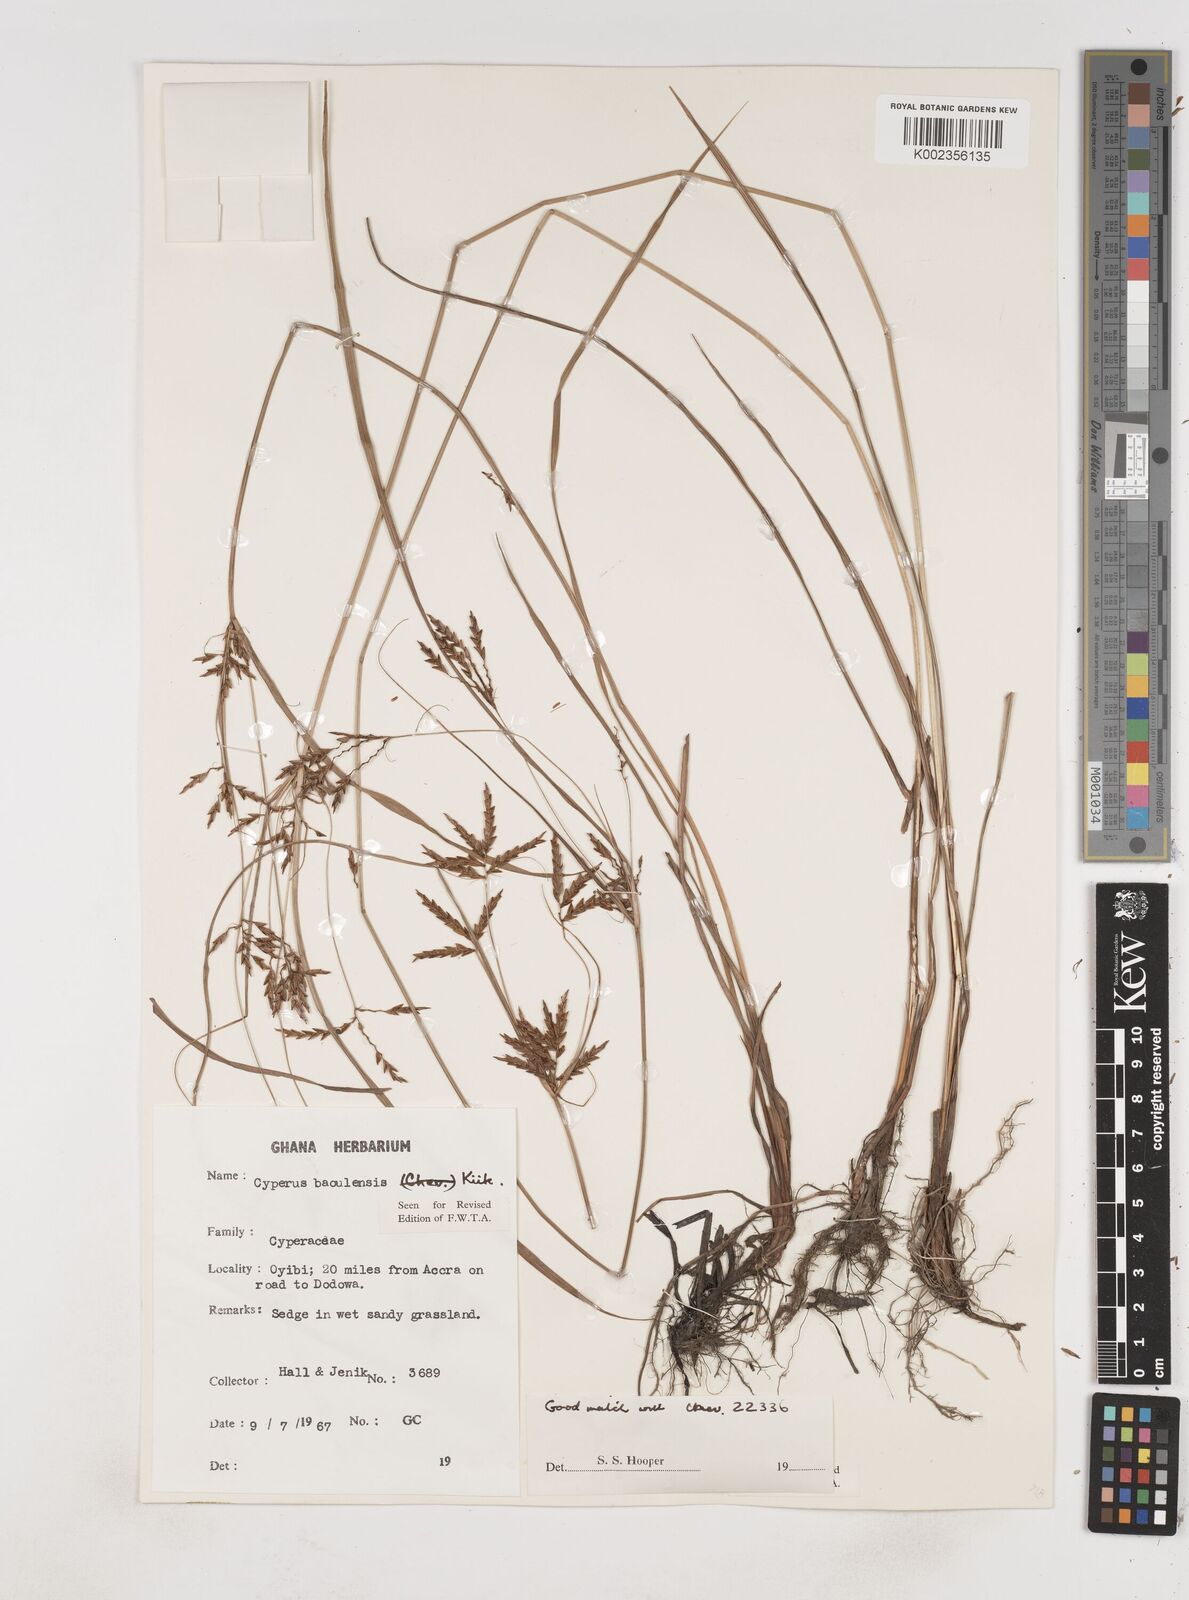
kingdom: Plantae
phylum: Tracheophyta
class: Liliopsida
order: Poales
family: Cyperaceae
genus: Cyperus
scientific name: Cyperus baoulensis
